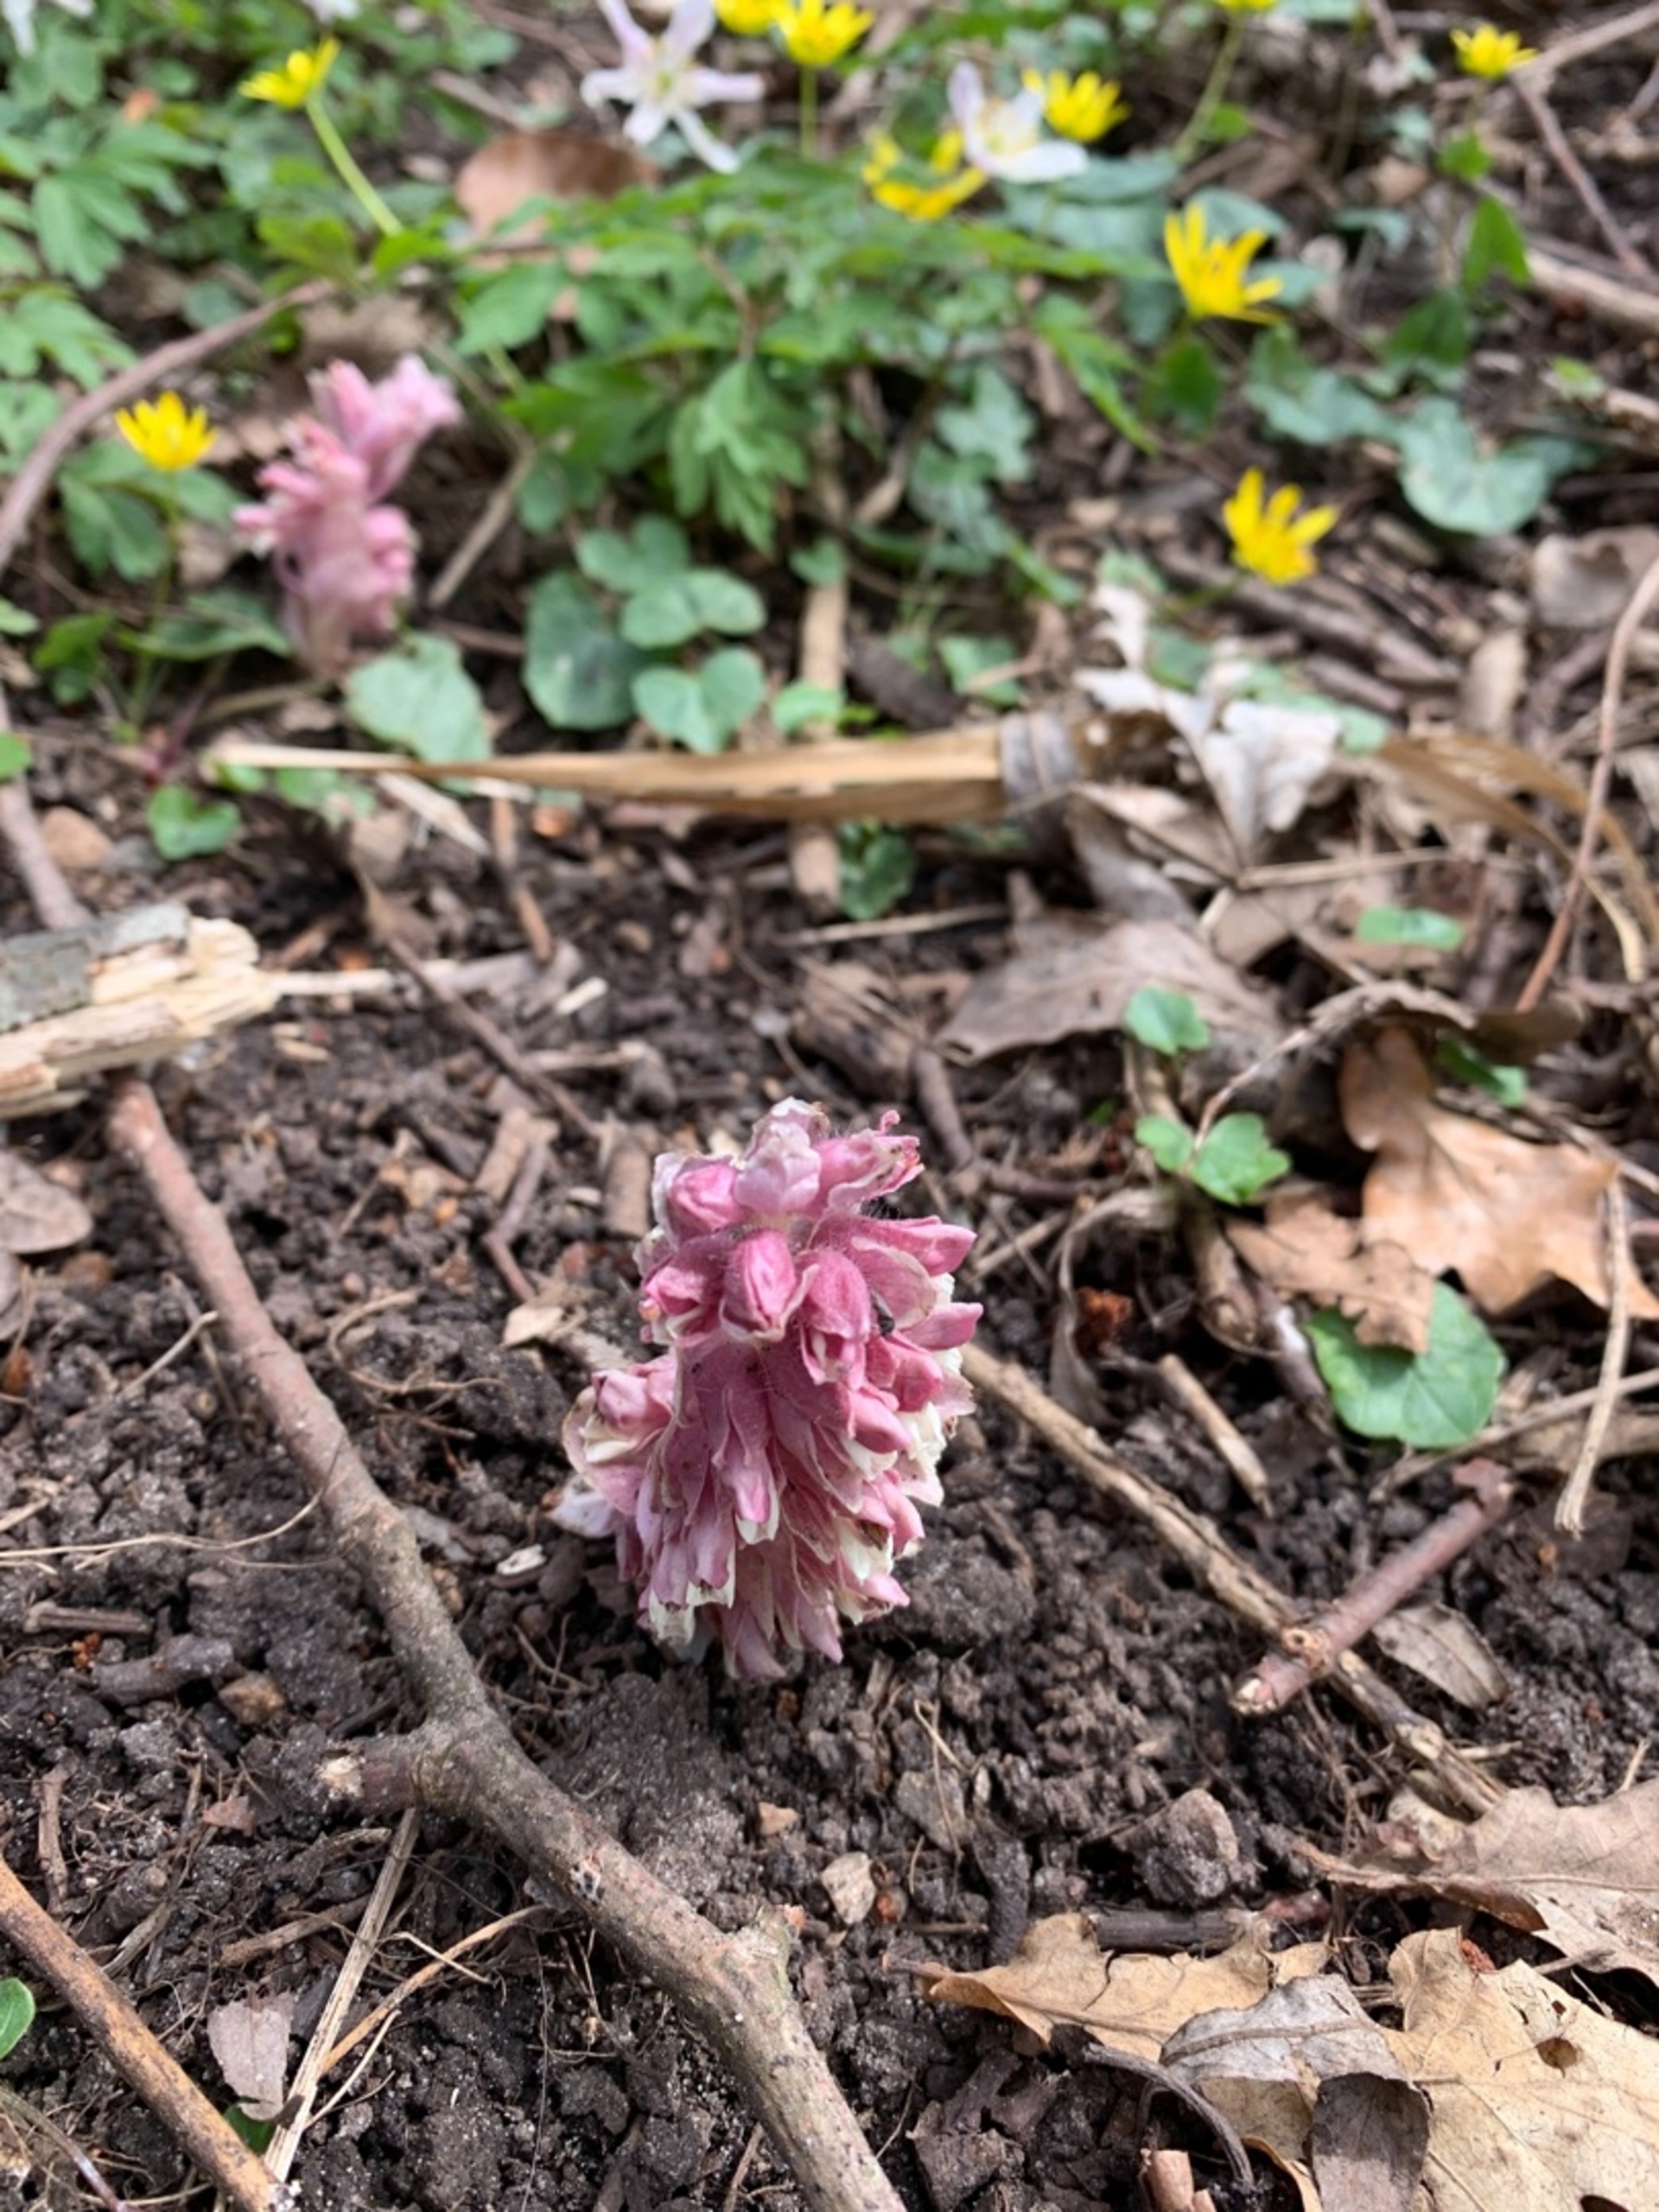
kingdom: Plantae
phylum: Tracheophyta
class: Magnoliopsida
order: Lamiales
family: Orobanchaceae
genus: Lathraea
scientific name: Lathraea squamaria
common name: Skælrod
